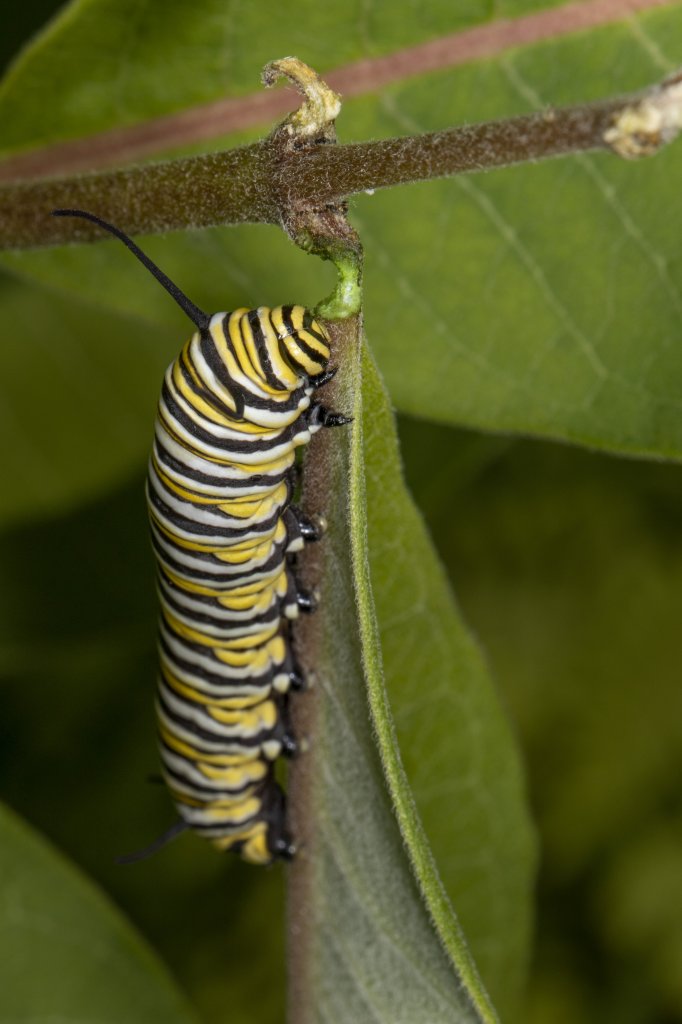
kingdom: Animalia
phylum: Arthropoda
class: Insecta
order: Lepidoptera
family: Nymphalidae
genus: Danaus
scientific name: Danaus plexippus
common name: Monarch
